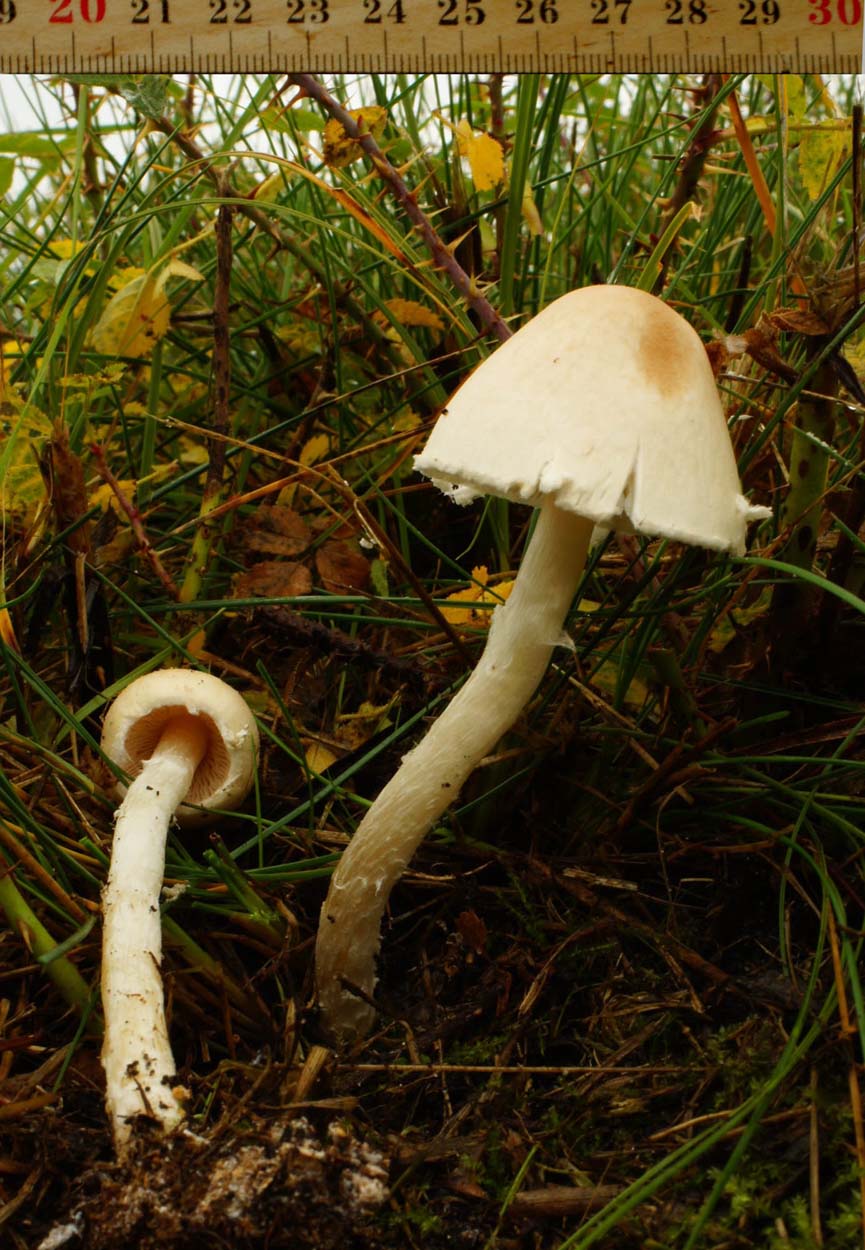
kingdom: Fungi
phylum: Basidiomycota
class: Agaricomycetes
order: Agaricales
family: Agaricaceae
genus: Lepiota
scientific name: Lepiota erminea
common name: hvid parasolhat
